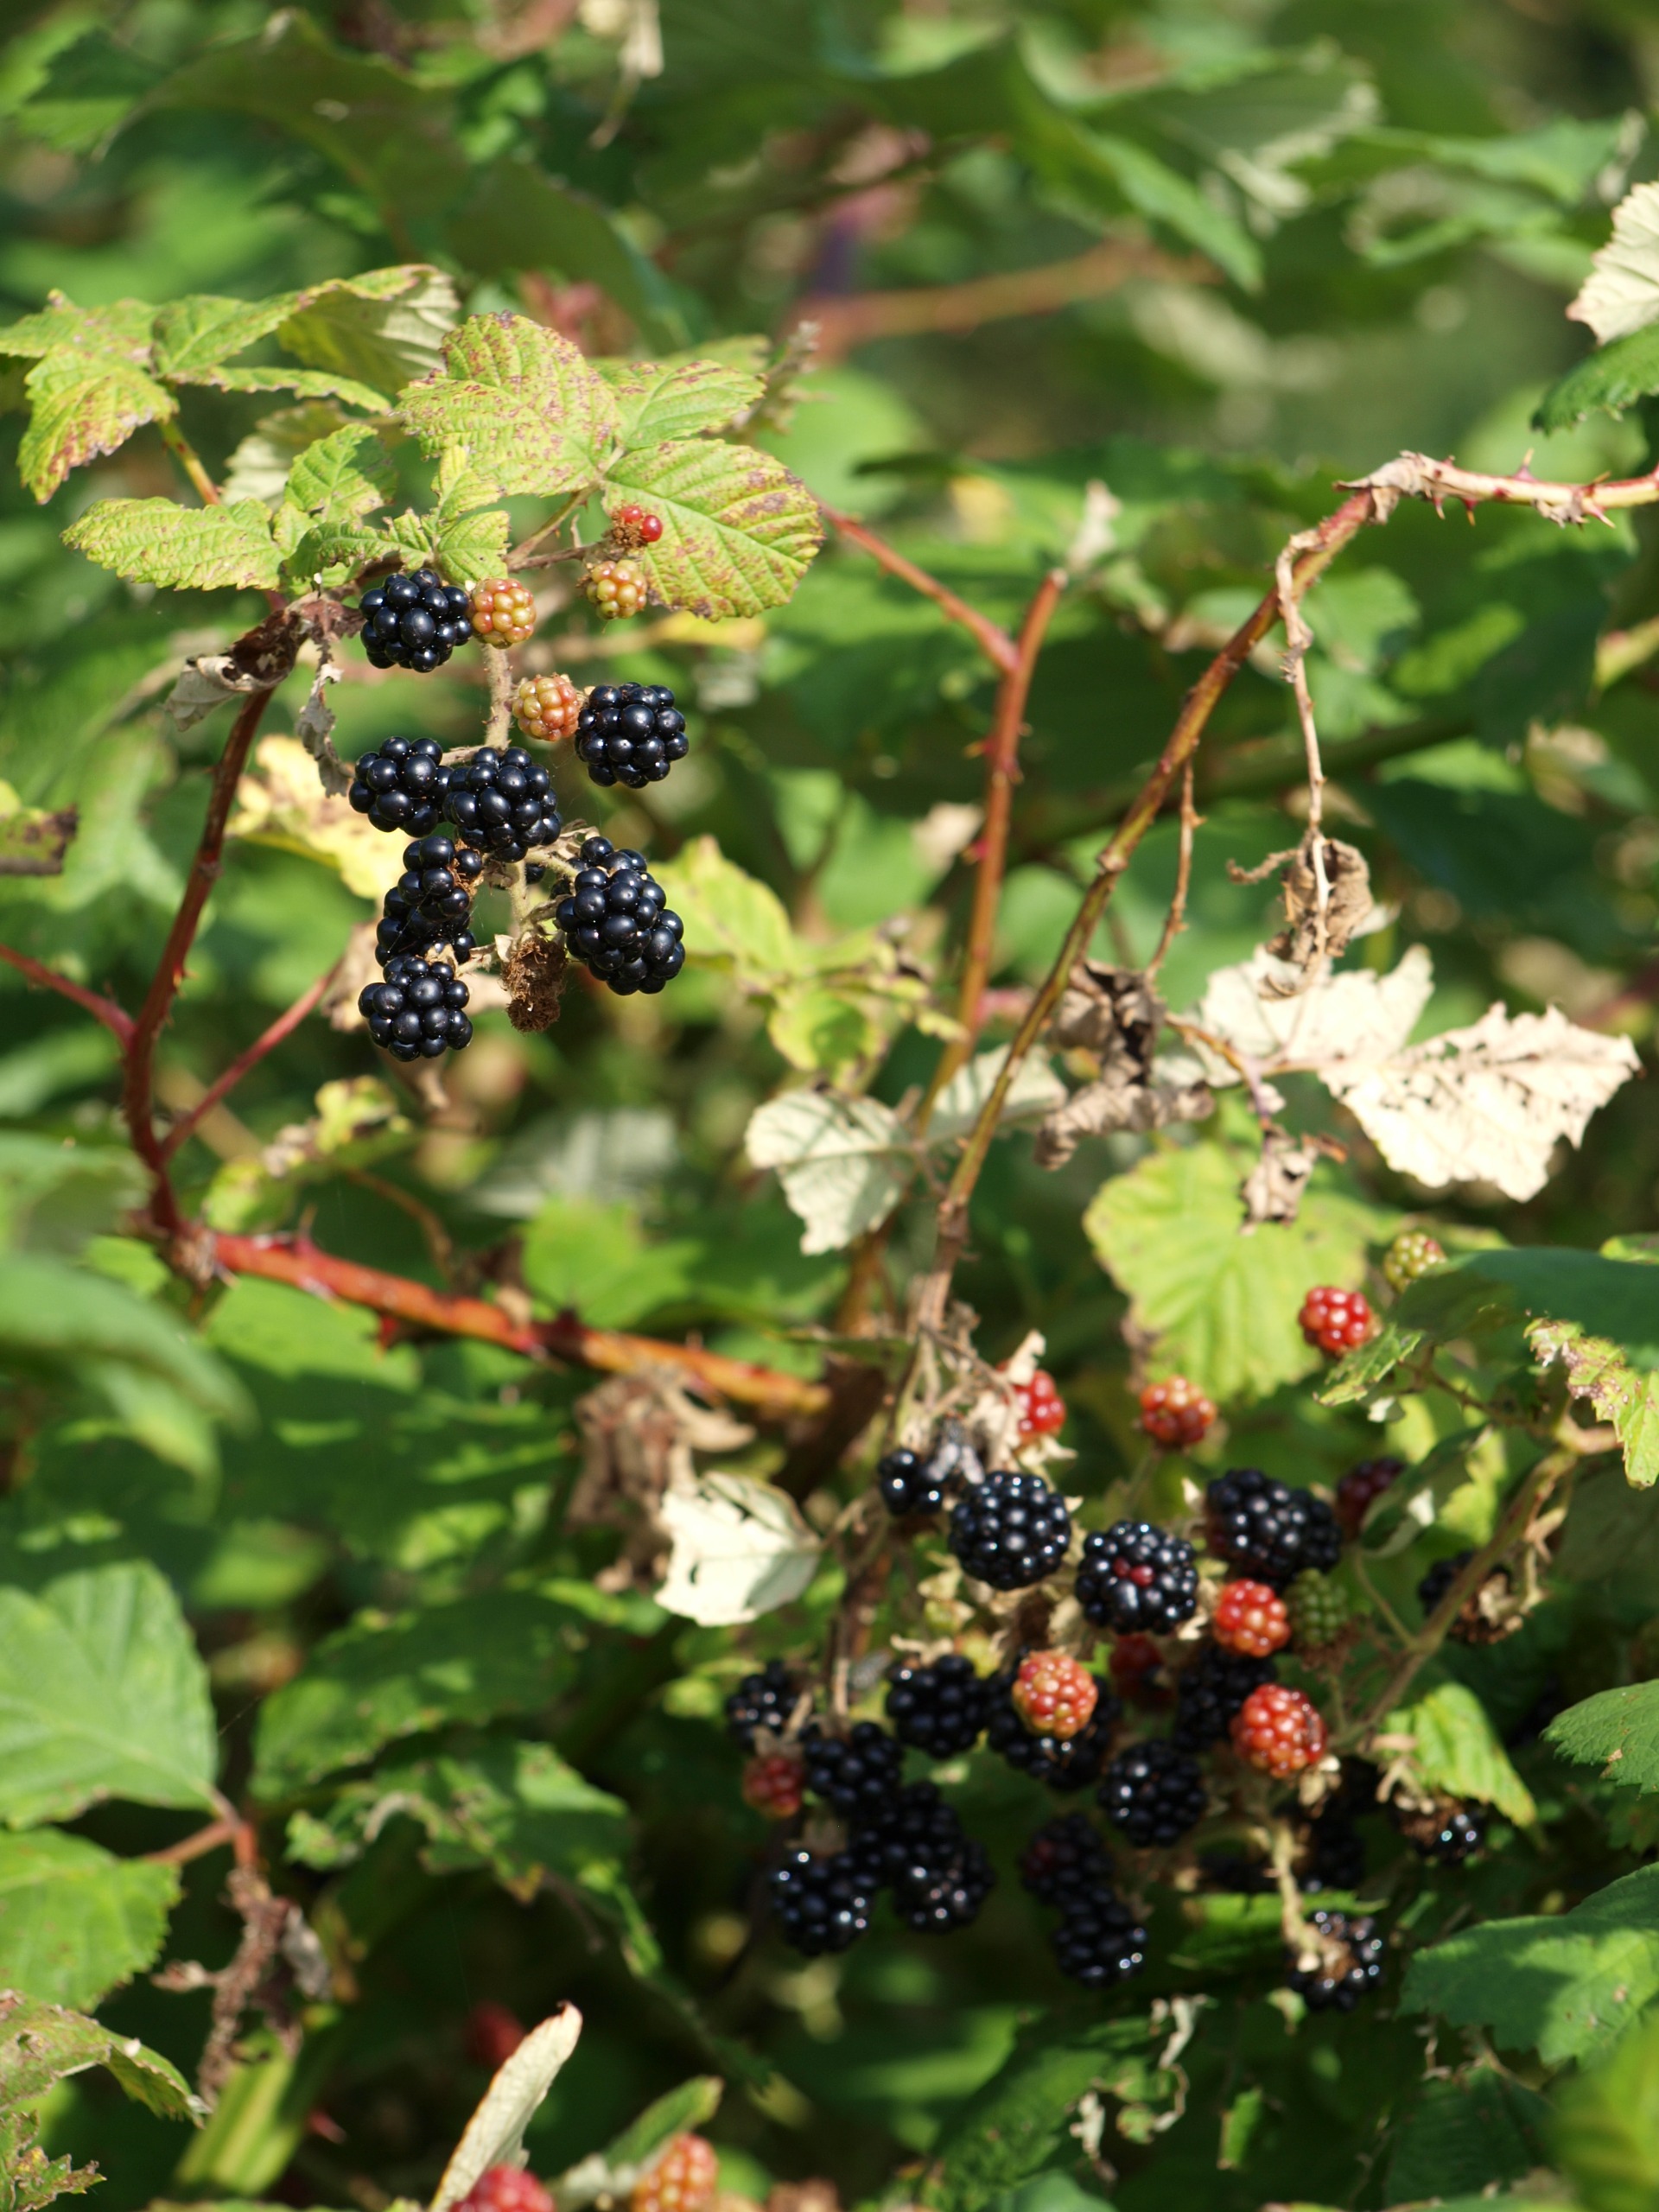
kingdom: Plantae
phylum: Tracheophyta
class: Magnoliopsida
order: Rosales
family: Rosaceae
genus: Rubus
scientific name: Rubus armeniacus
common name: Armensk brombær
